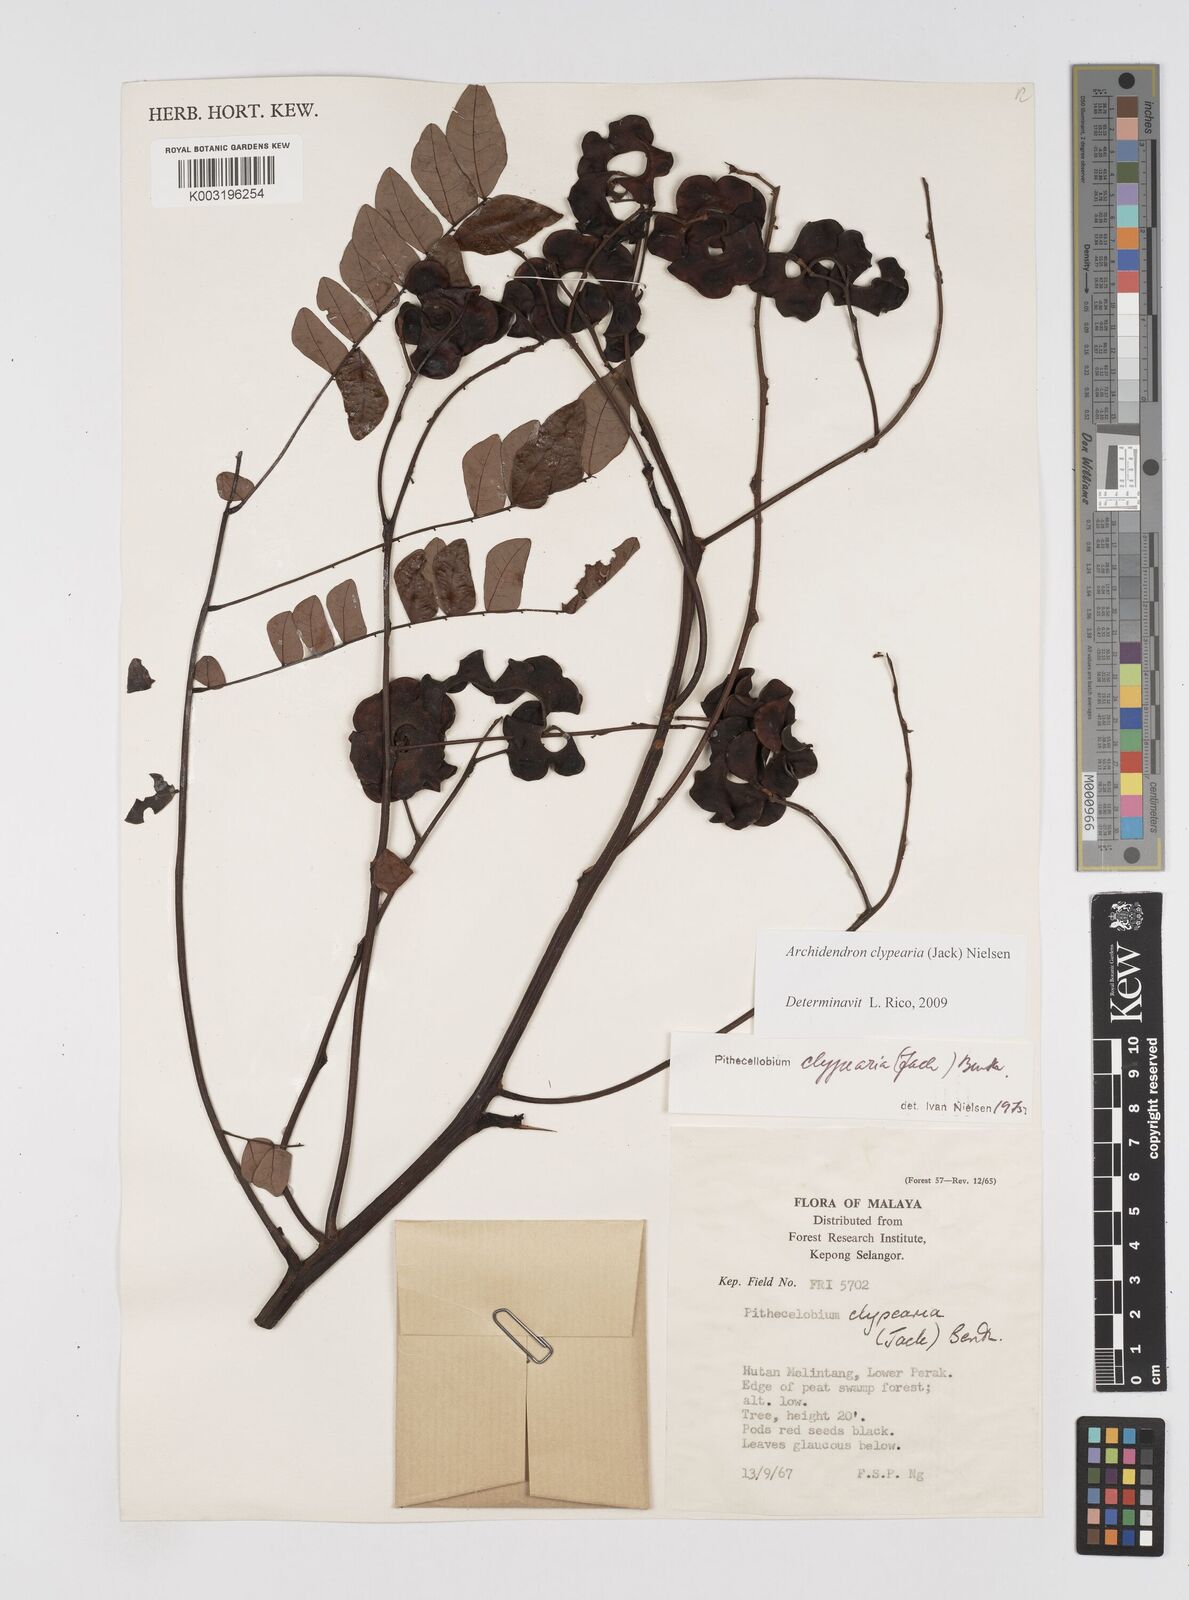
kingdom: Plantae
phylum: Tracheophyta
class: Magnoliopsida
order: Fabales
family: Fabaceae
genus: Archidendron
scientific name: Archidendron clypearia
